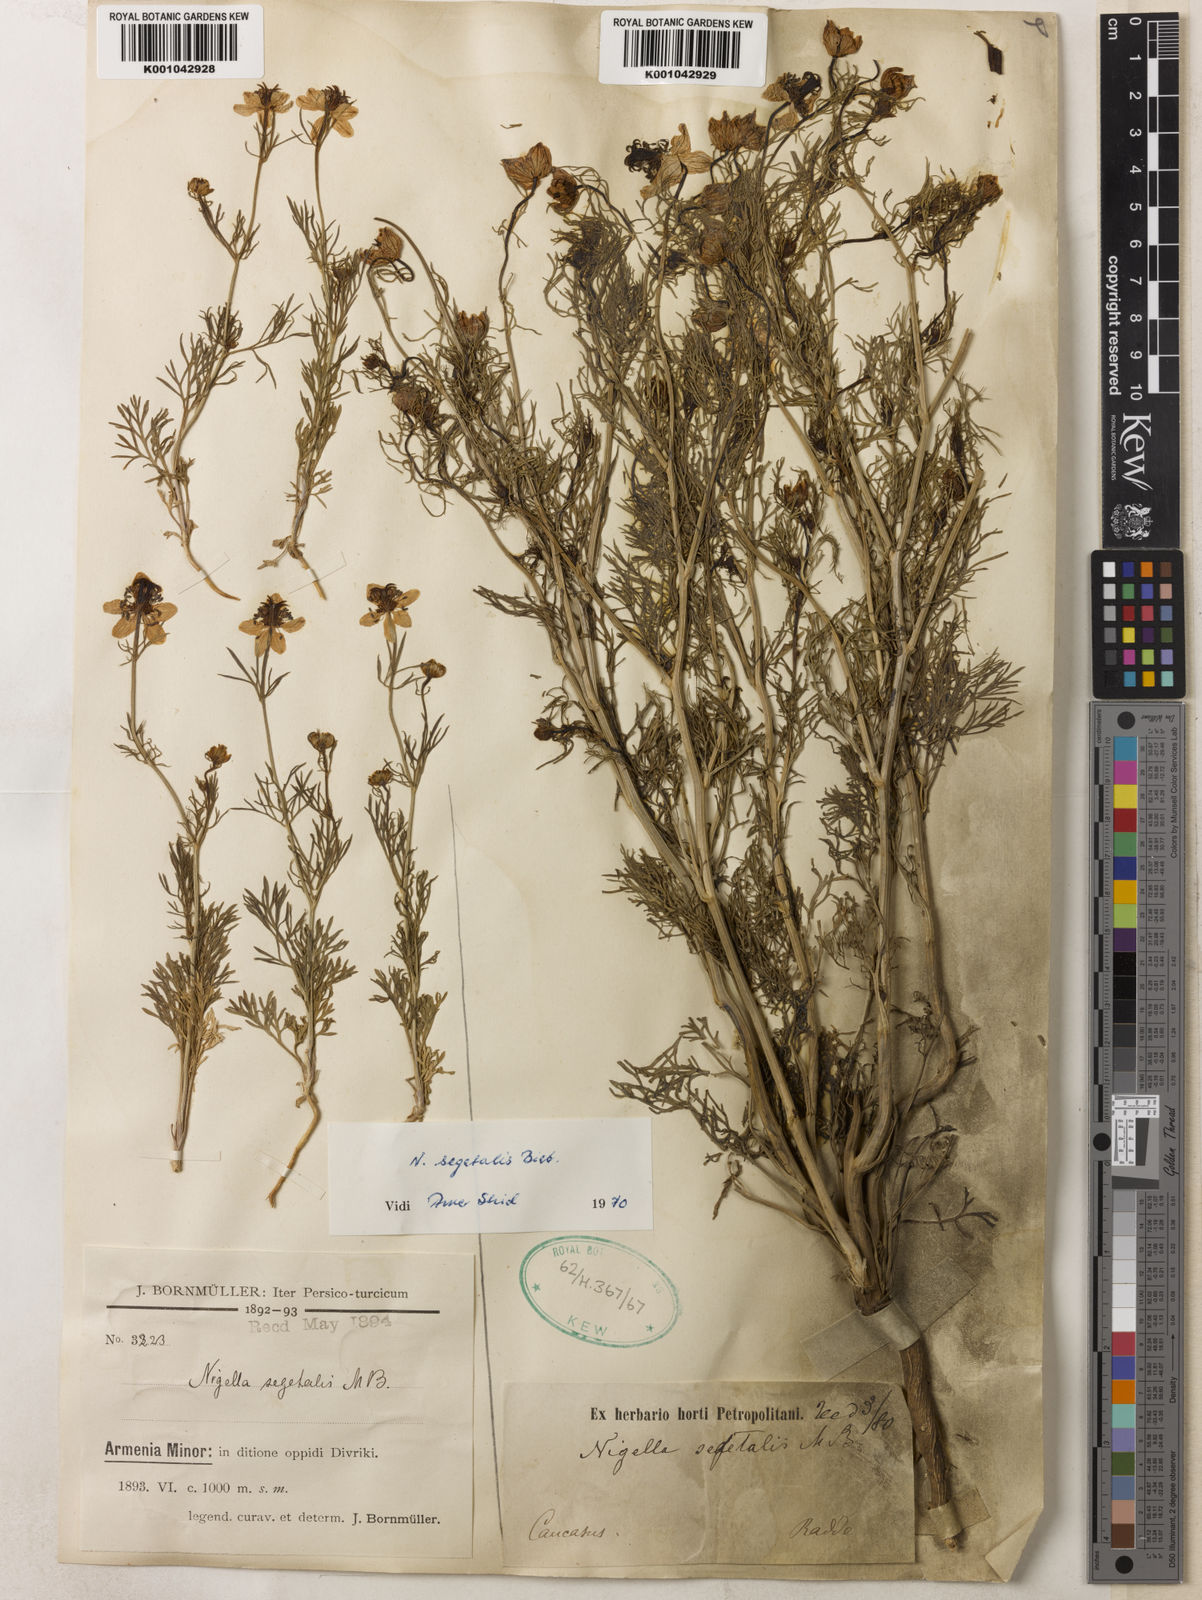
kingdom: Plantae
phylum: Tracheophyta
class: Magnoliopsida
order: Ranunculales
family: Ranunculaceae
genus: Nigella
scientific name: Nigella segetalis
